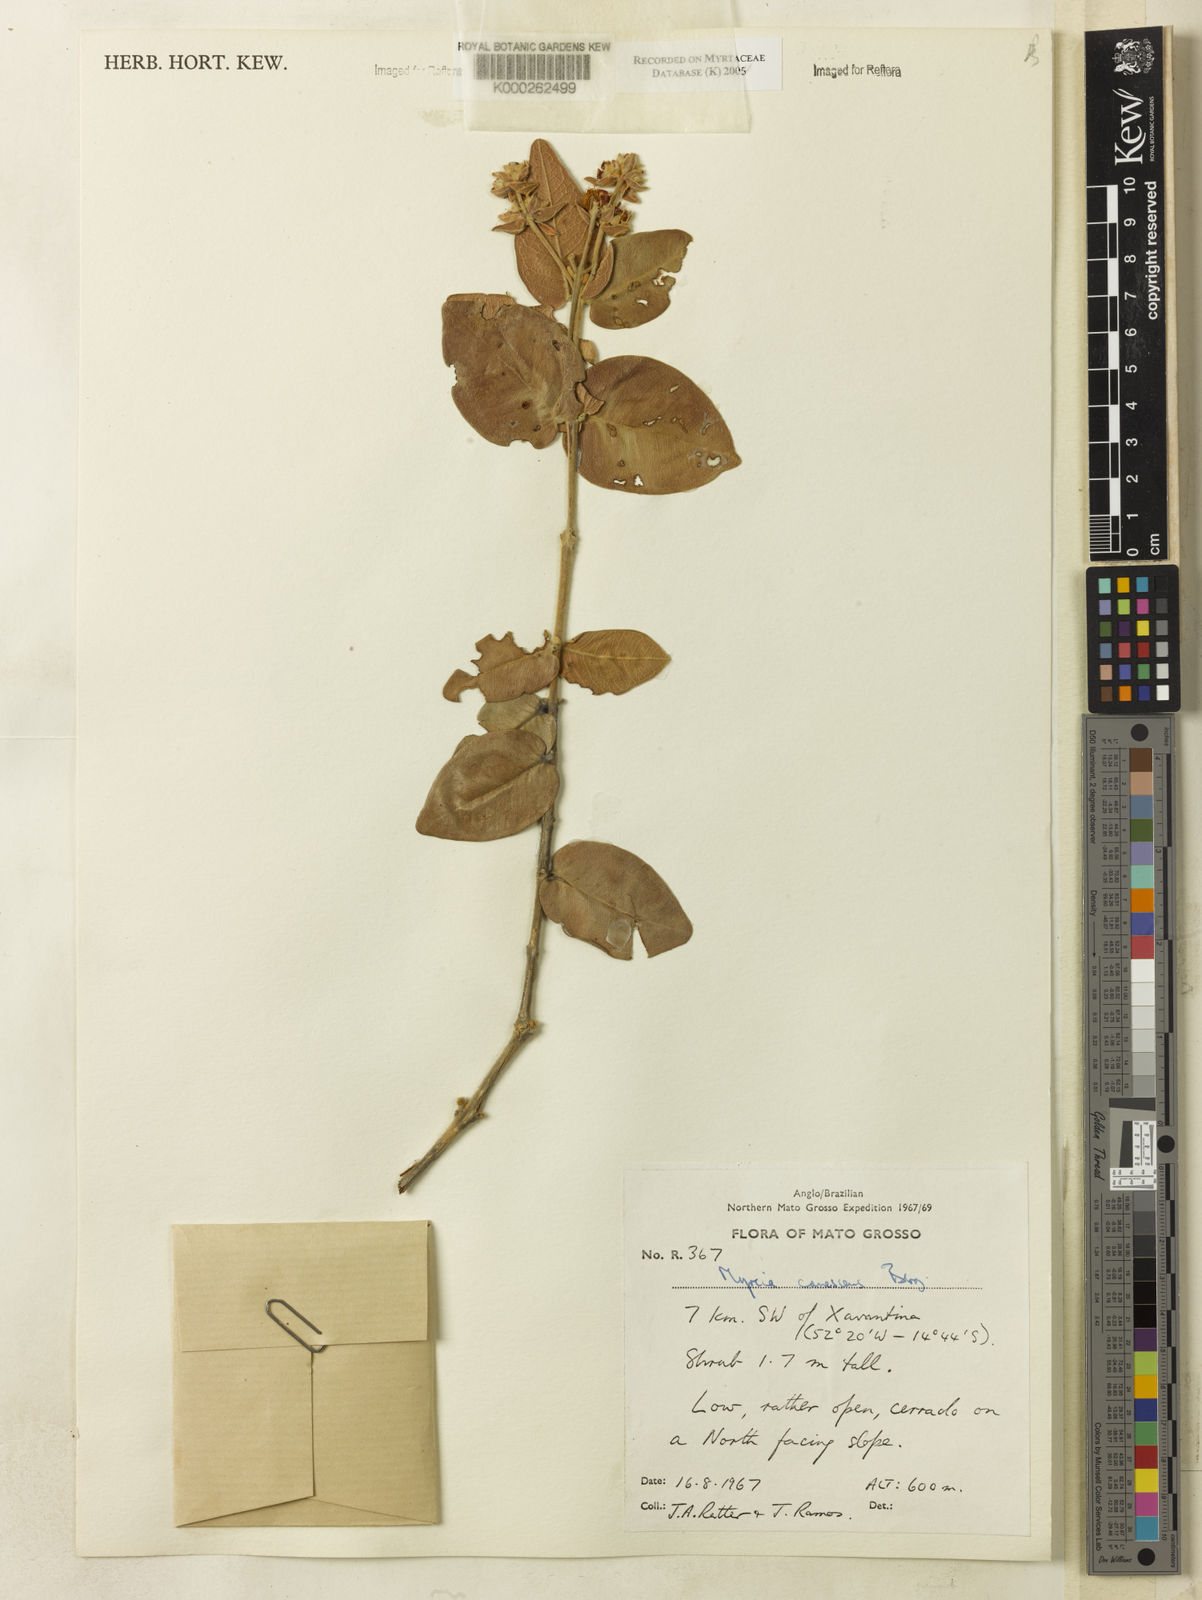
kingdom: Plantae
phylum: Tracheophyta
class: Magnoliopsida
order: Myrtales
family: Myrtaceae
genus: Myrcia
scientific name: Myrcia canescens
